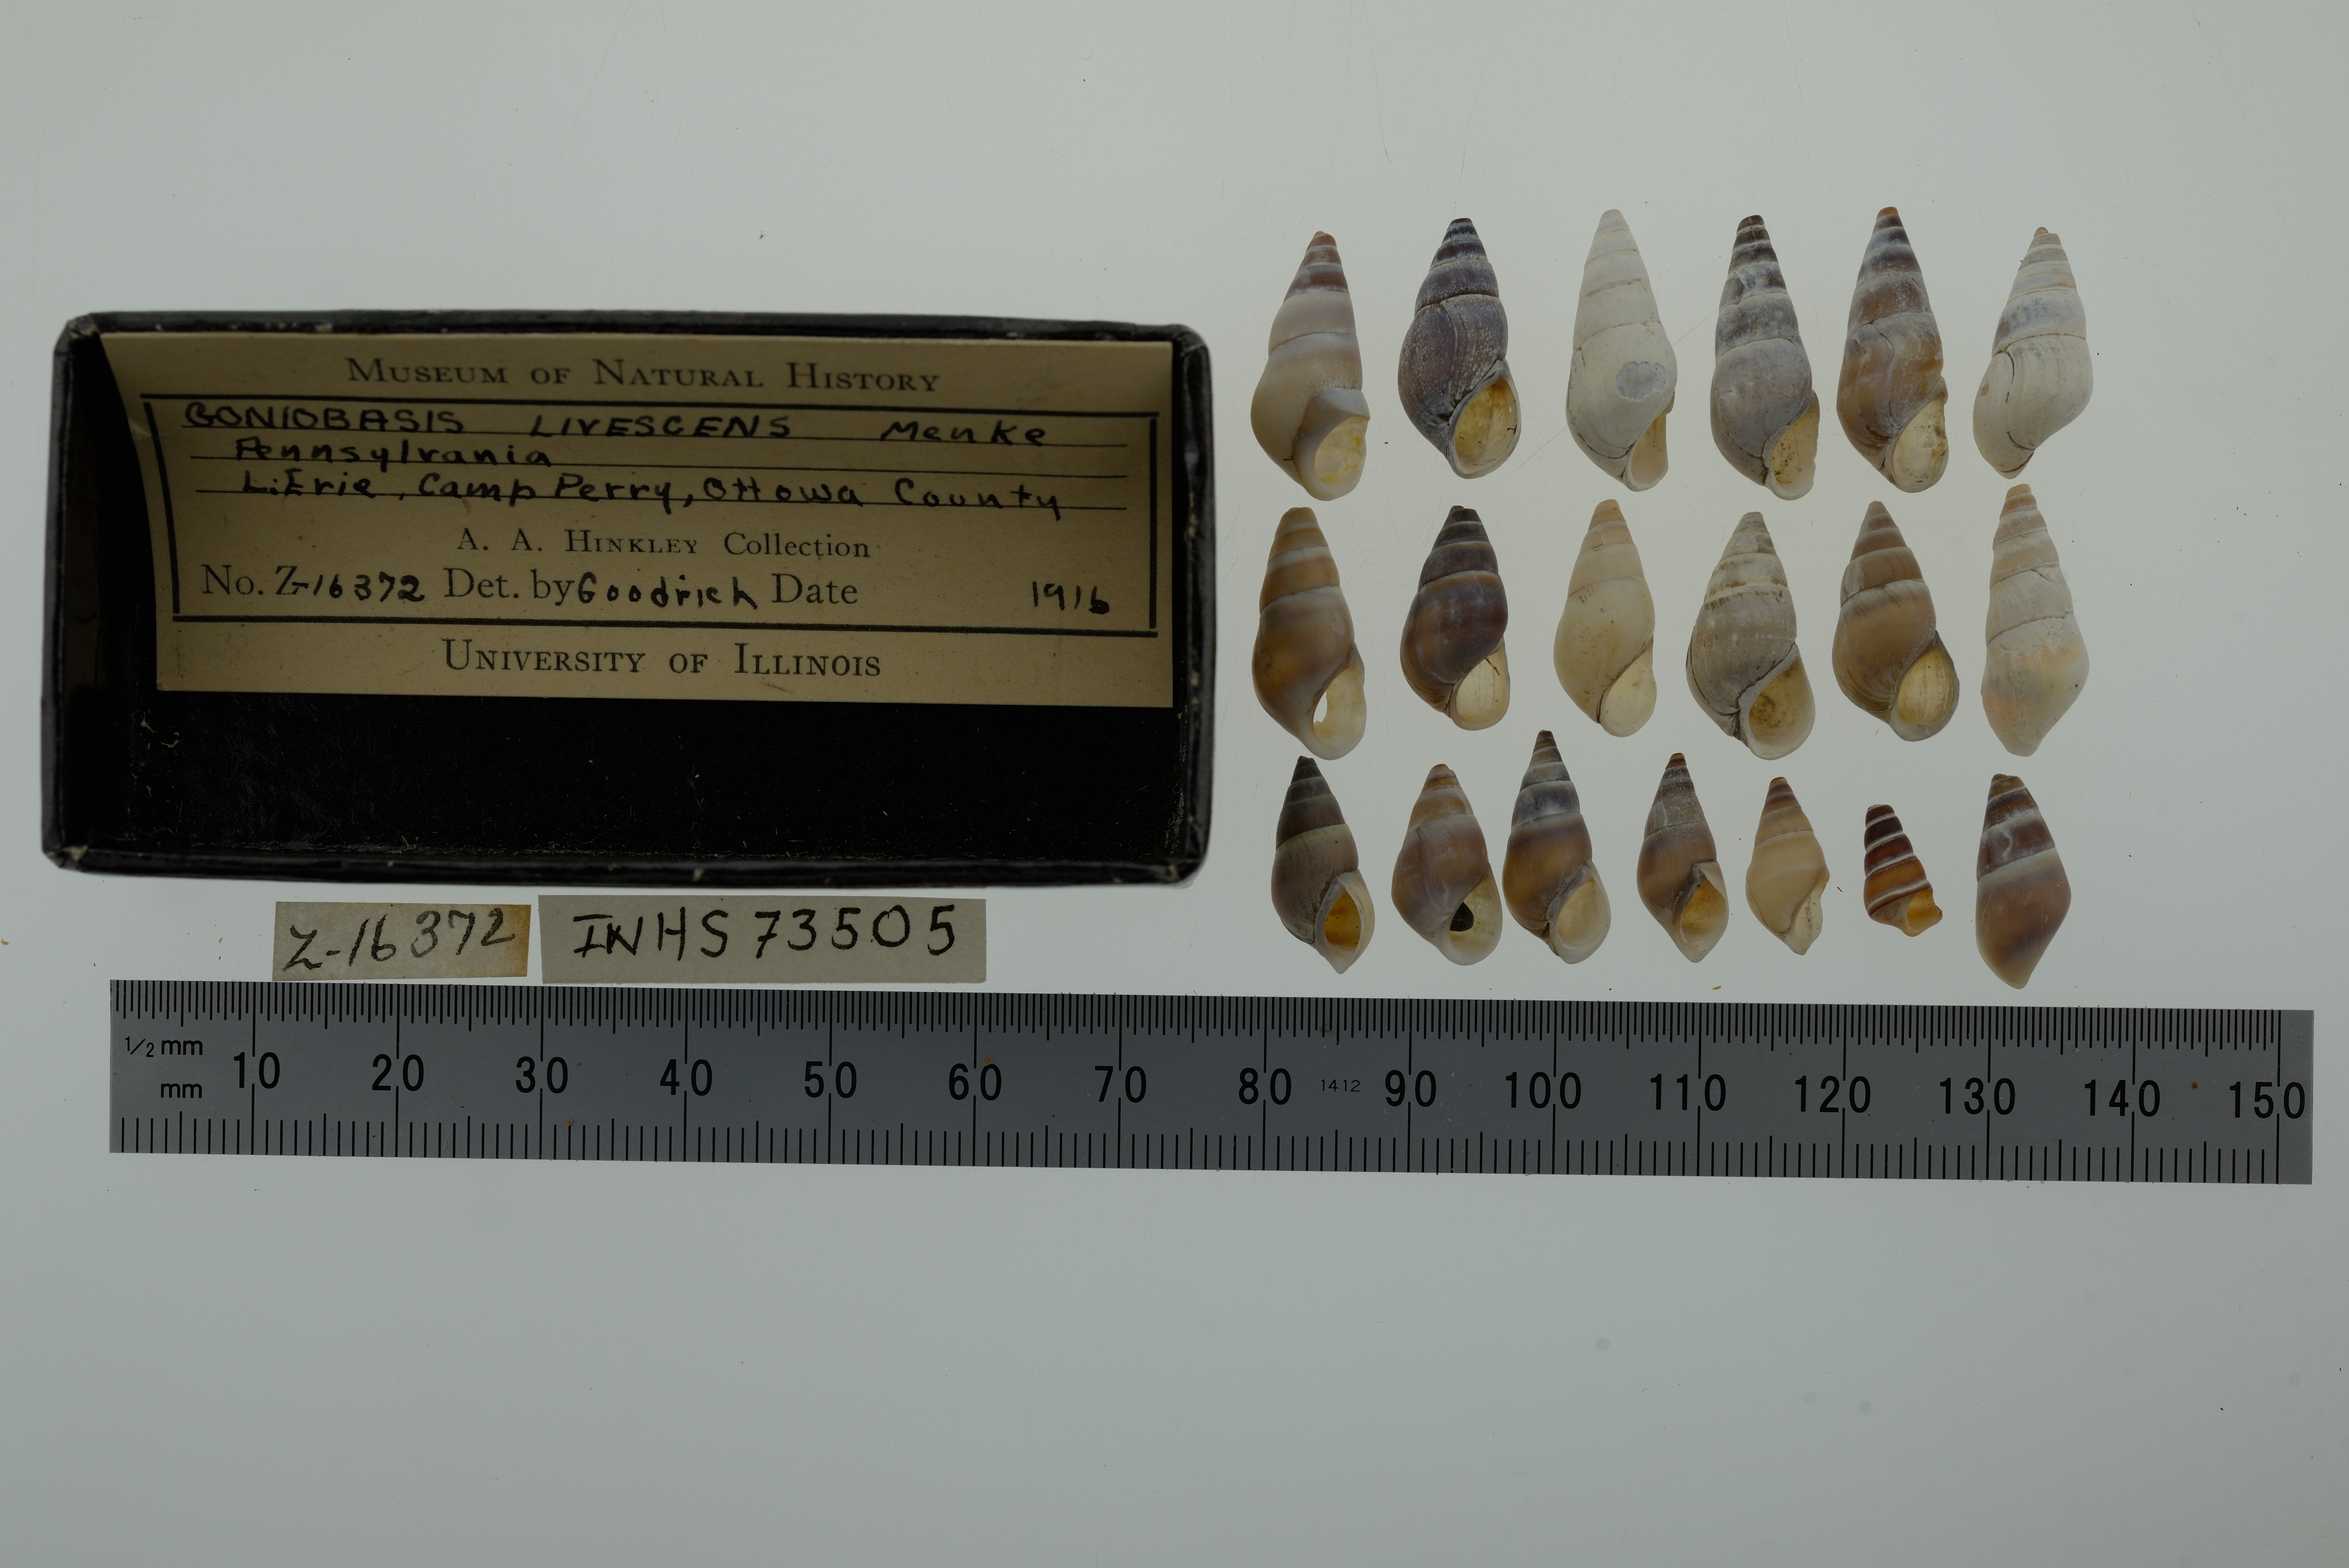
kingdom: Animalia
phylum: Mollusca
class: Gastropoda
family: Pleuroceridae
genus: Elimia
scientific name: Elimia livescens
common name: Liver elimia
